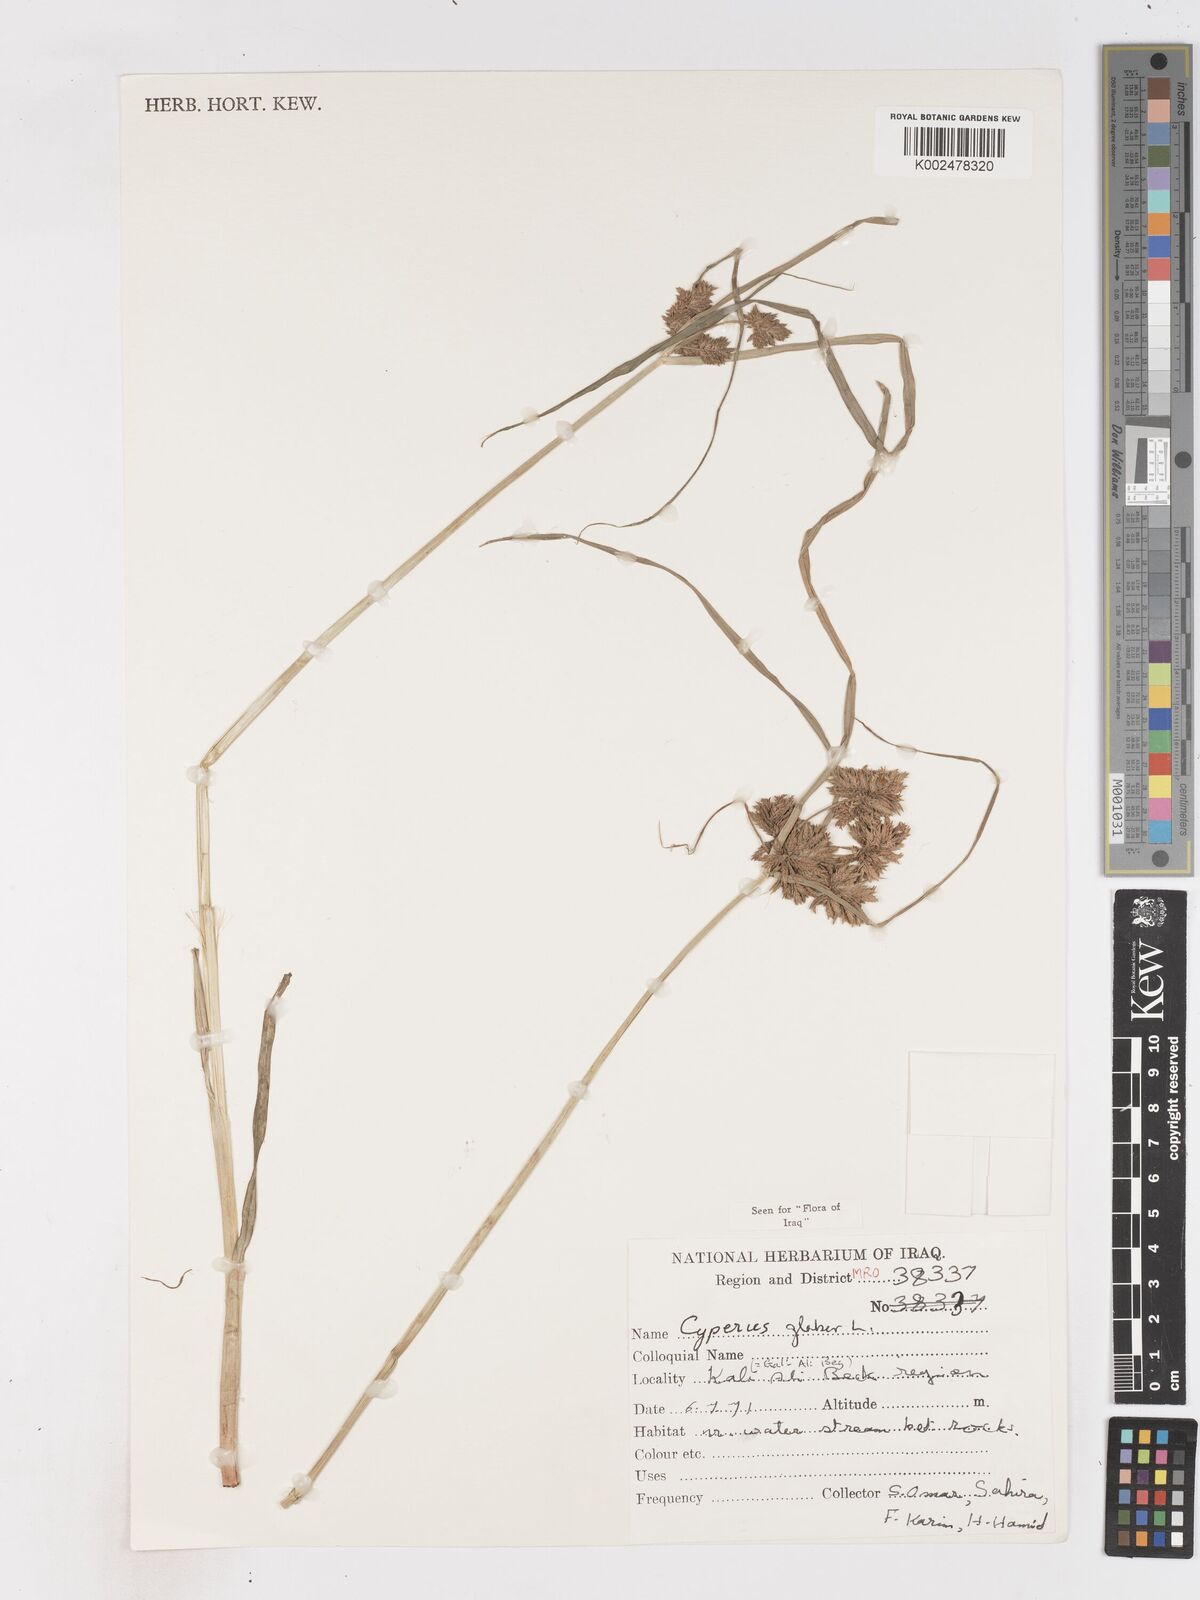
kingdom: Plantae
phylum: Tracheophyta
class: Liliopsida
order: Poales
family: Cyperaceae
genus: Cyperus
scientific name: Cyperus glaber
